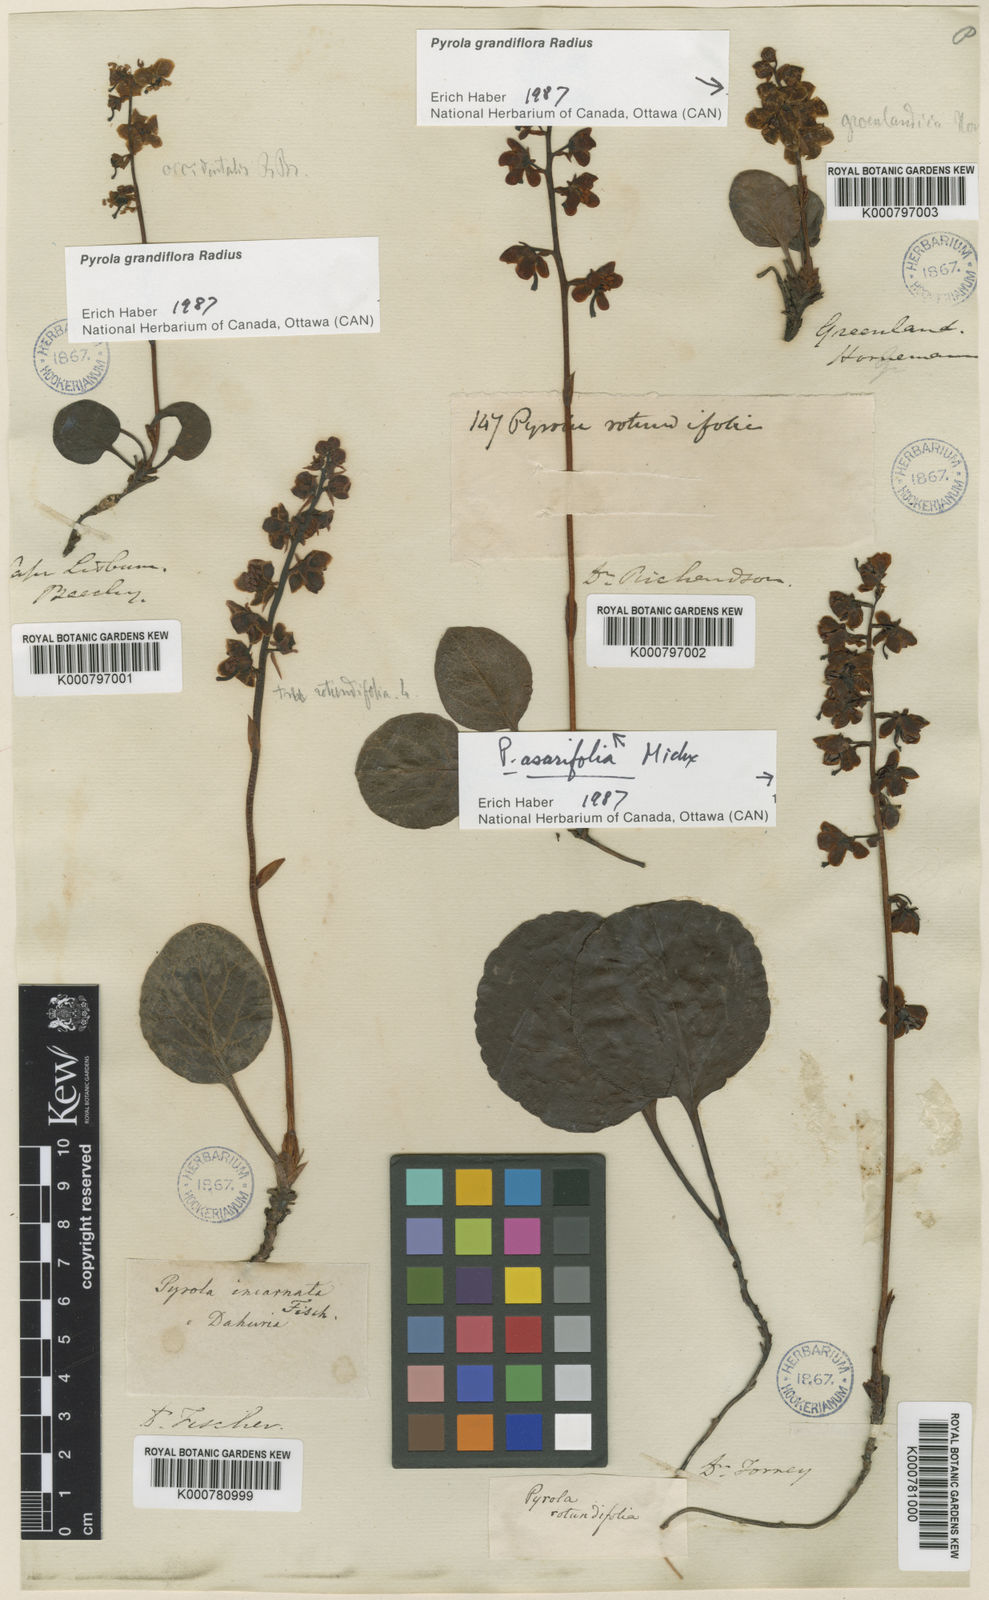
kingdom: Plantae
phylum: Tracheophyta
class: Magnoliopsida
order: Ericales
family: Ericaceae
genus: Pyrola
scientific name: Pyrola asarifolia
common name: Bog wintergreen
